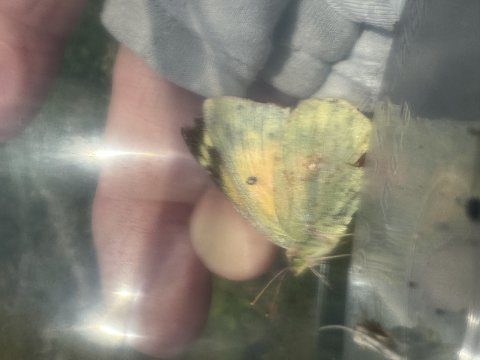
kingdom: Animalia
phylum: Arthropoda
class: Insecta
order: Lepidoptera
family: Pieridae
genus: Colias
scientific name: Colias eurytheme
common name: Orange Sulphur
